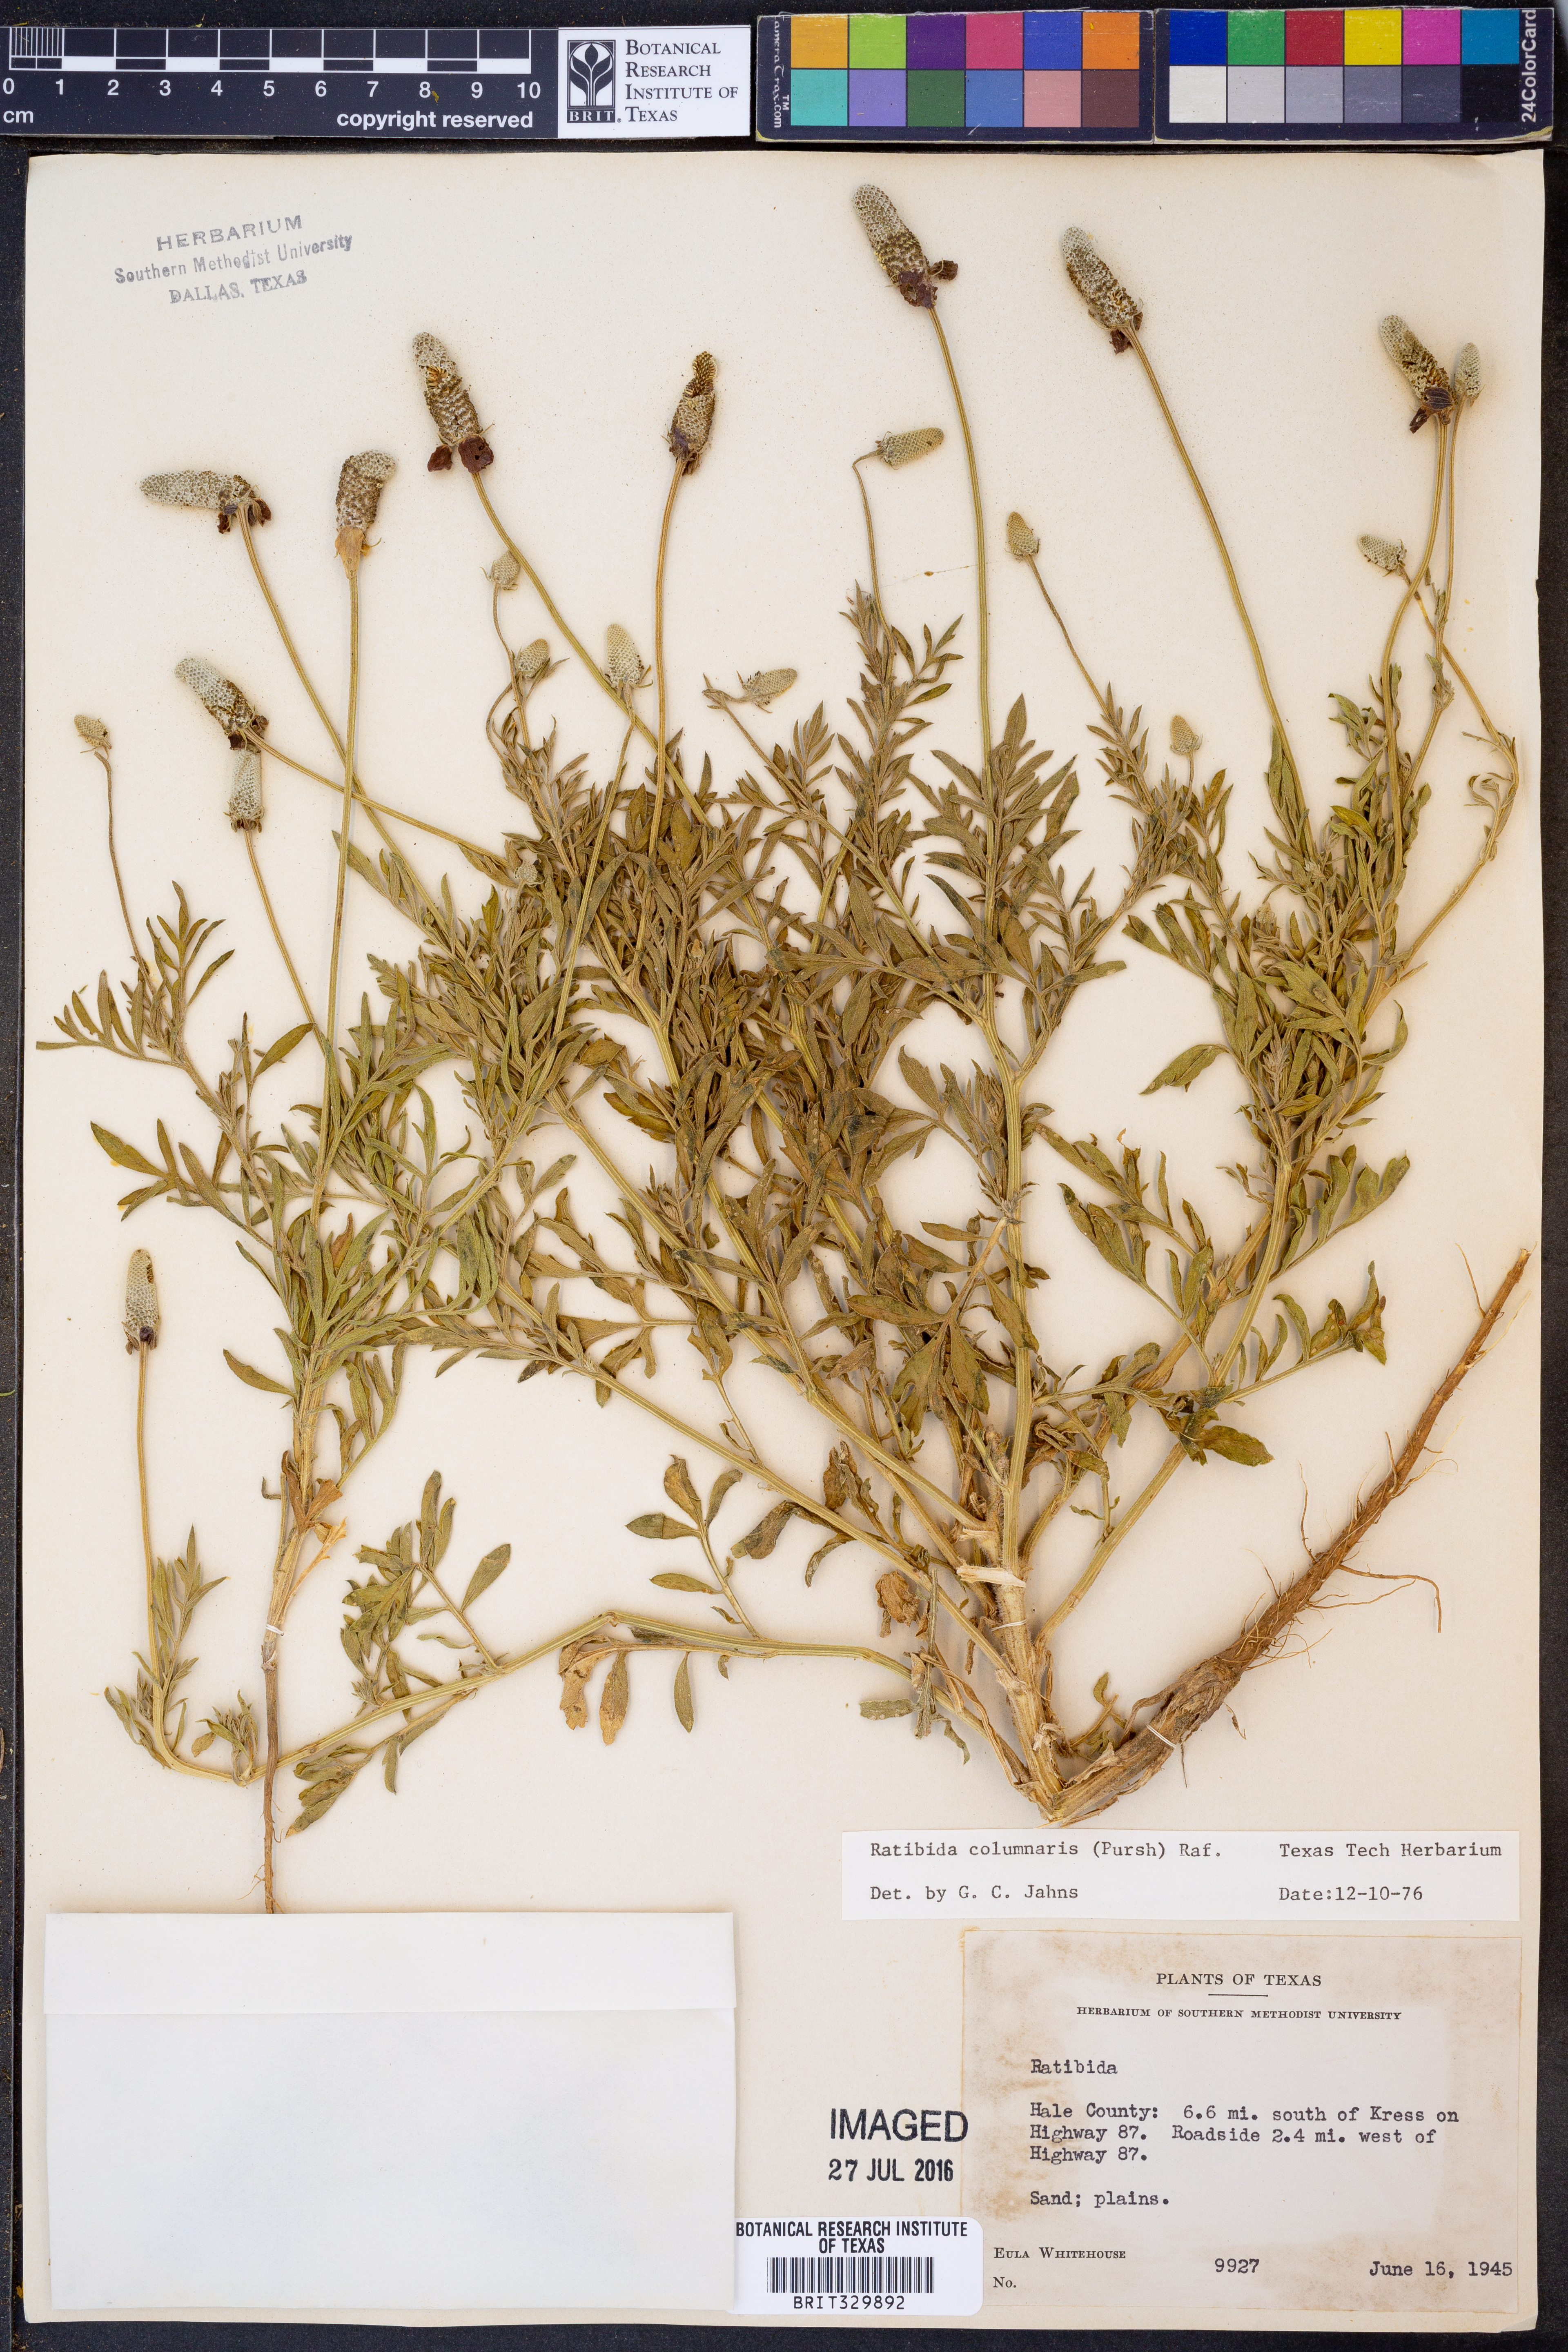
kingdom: Plantae
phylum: Tracheophyta
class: Magnoliopsida
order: Asterales
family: Asteraceae
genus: Ratibida
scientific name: Ratibida columnifera
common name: Prairie coneflower
